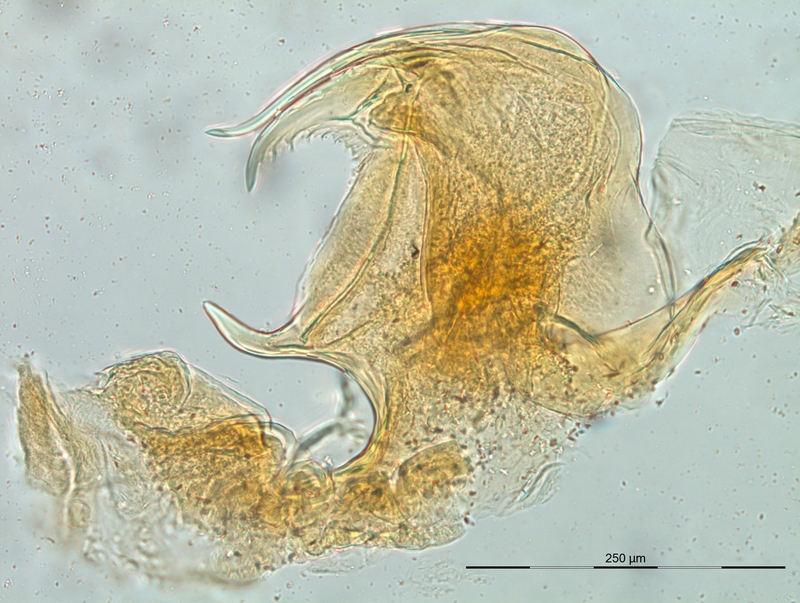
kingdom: Animalia
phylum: Arthropoda
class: Diplopoda
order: Chordeumatida
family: Craspedosomatidae
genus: Macheiriophoron
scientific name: Macheiriophoron verhoeffi
